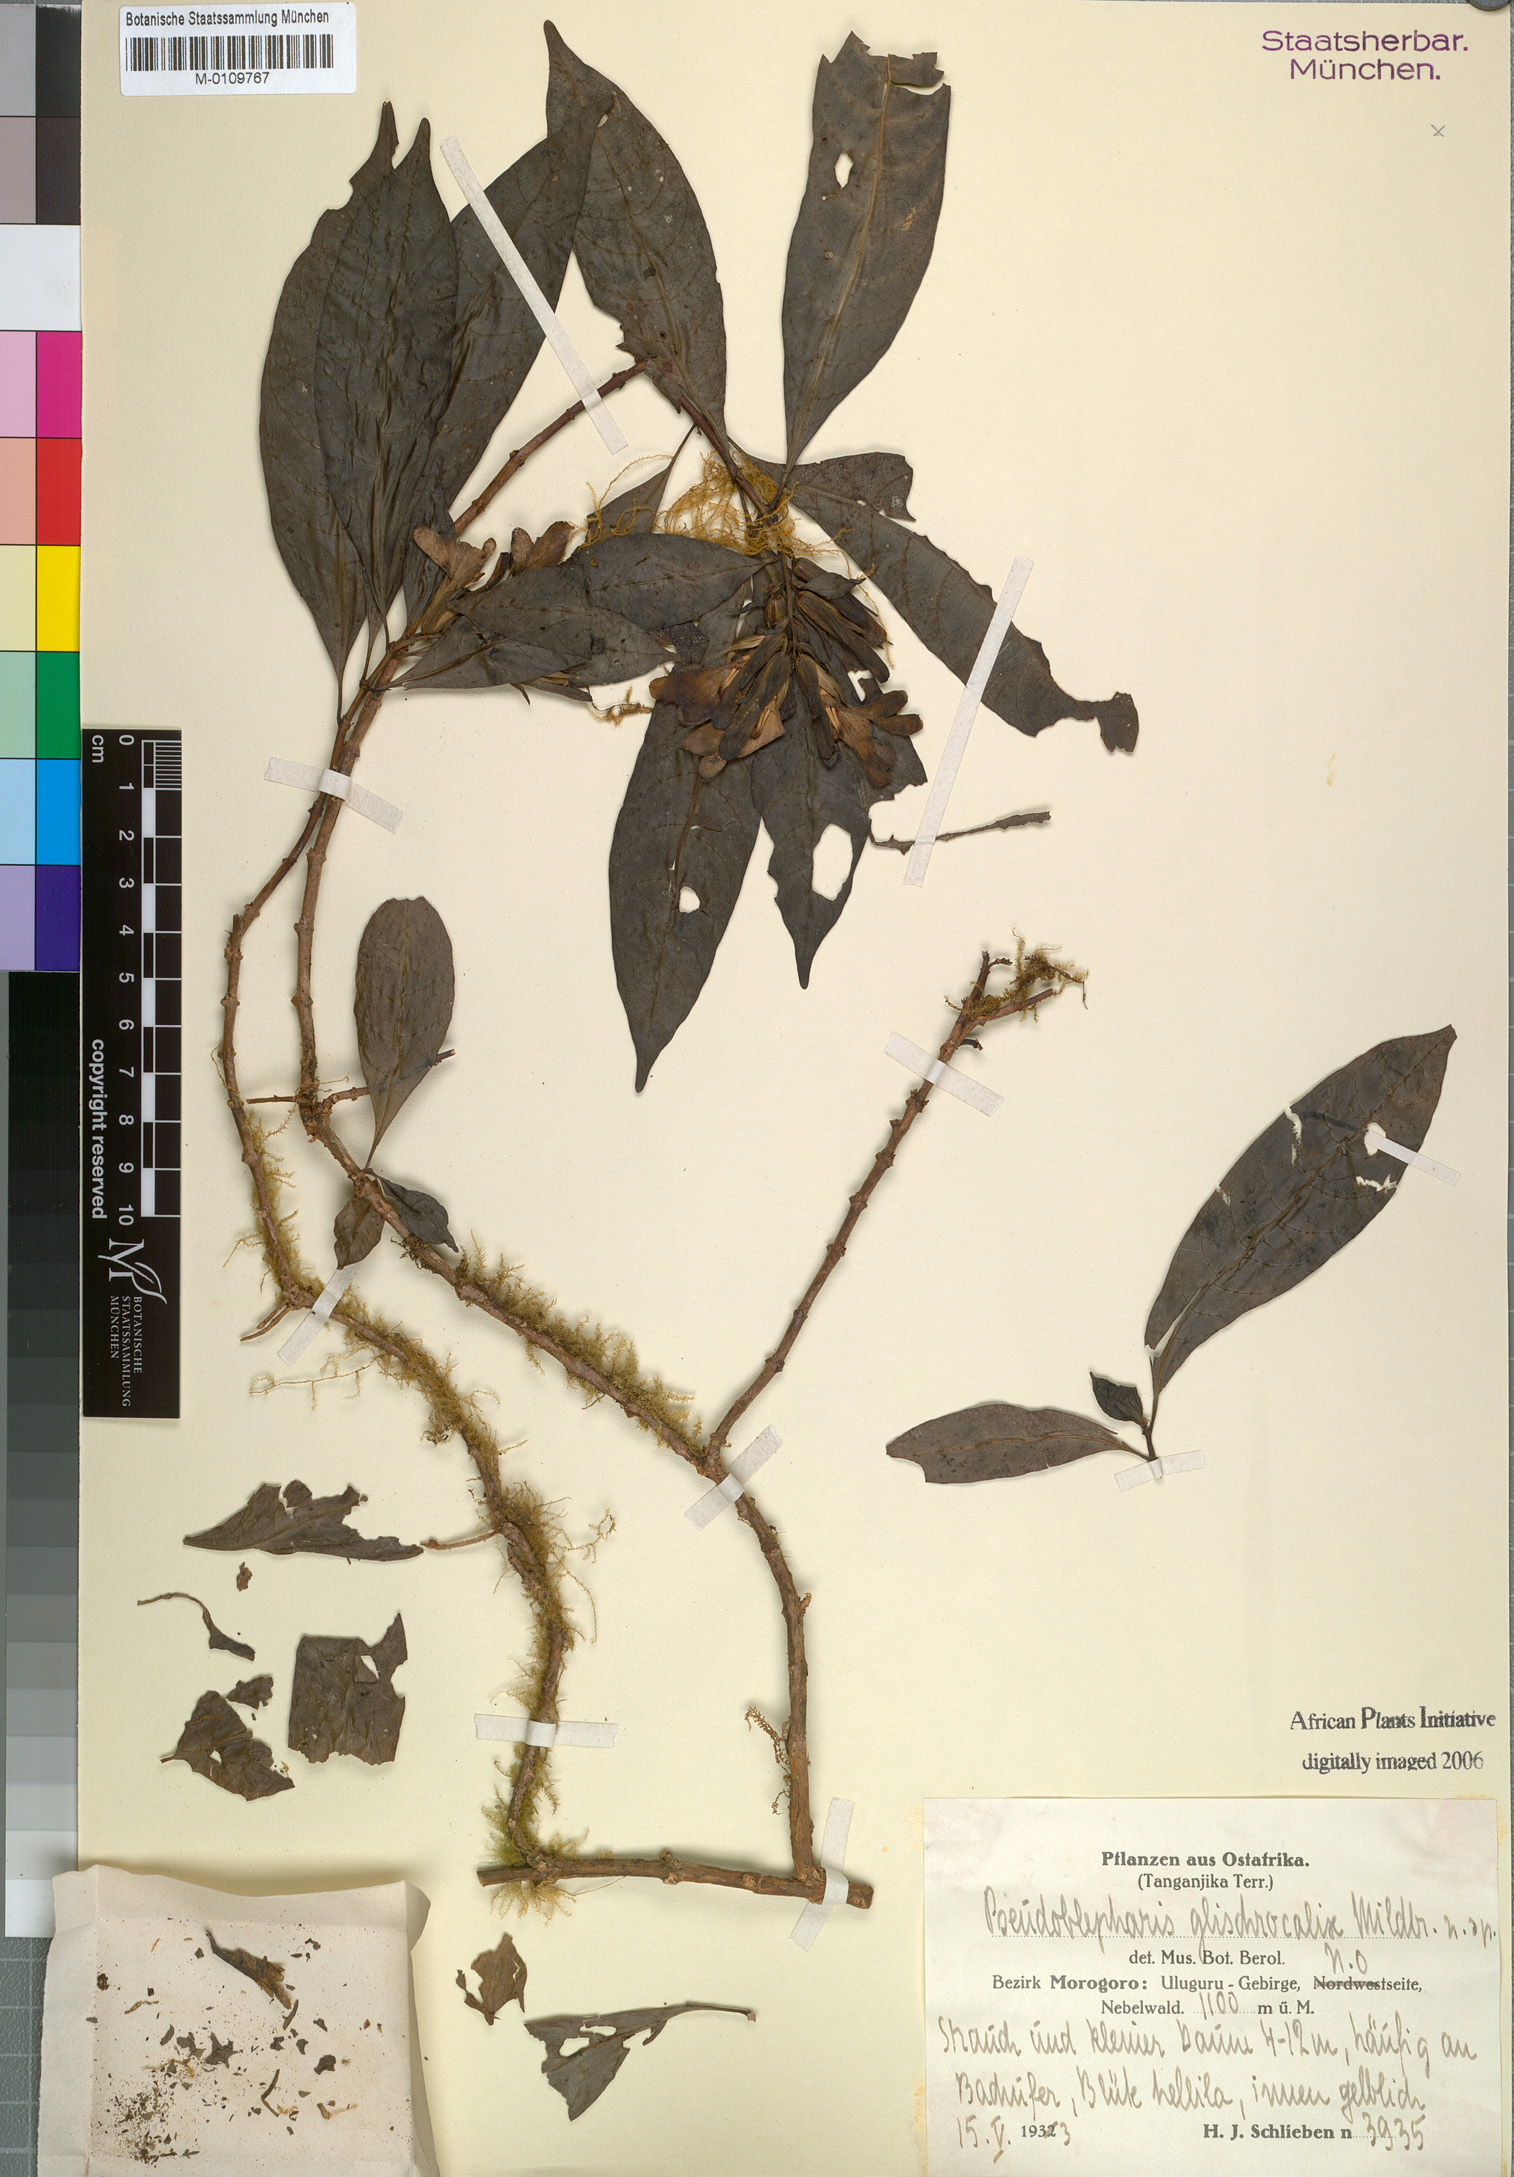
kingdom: Plantae
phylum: Tracheophyta
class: Magnoliopsida
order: Lamiales
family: Acanthaceae
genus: Sclerochiton
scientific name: Sclerochiton glandulosissimus
